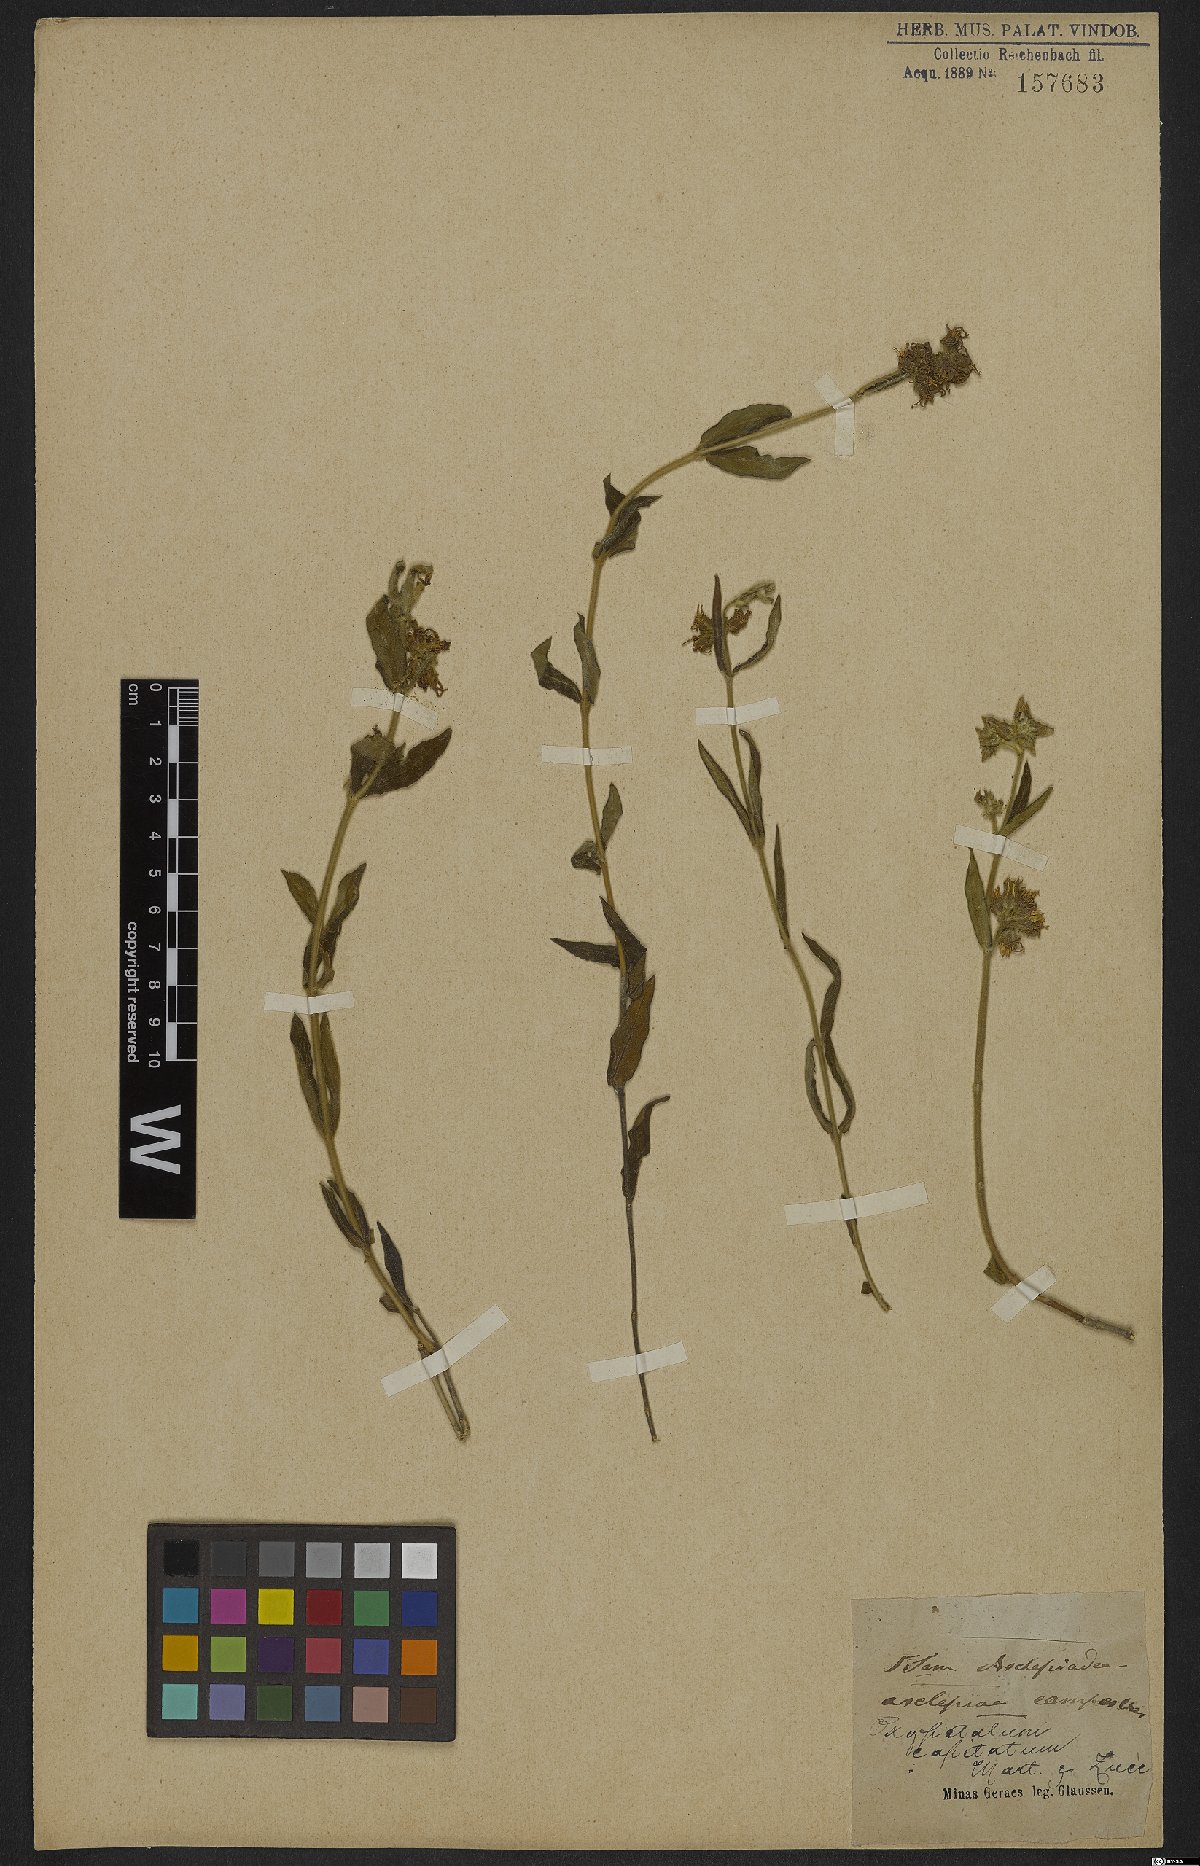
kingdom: Plantae
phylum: Tracheophyta
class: Magnoliopsida
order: Gentianales
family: Apocynaceae
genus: Oxypetalum
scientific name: Oxypetalum capitatum
